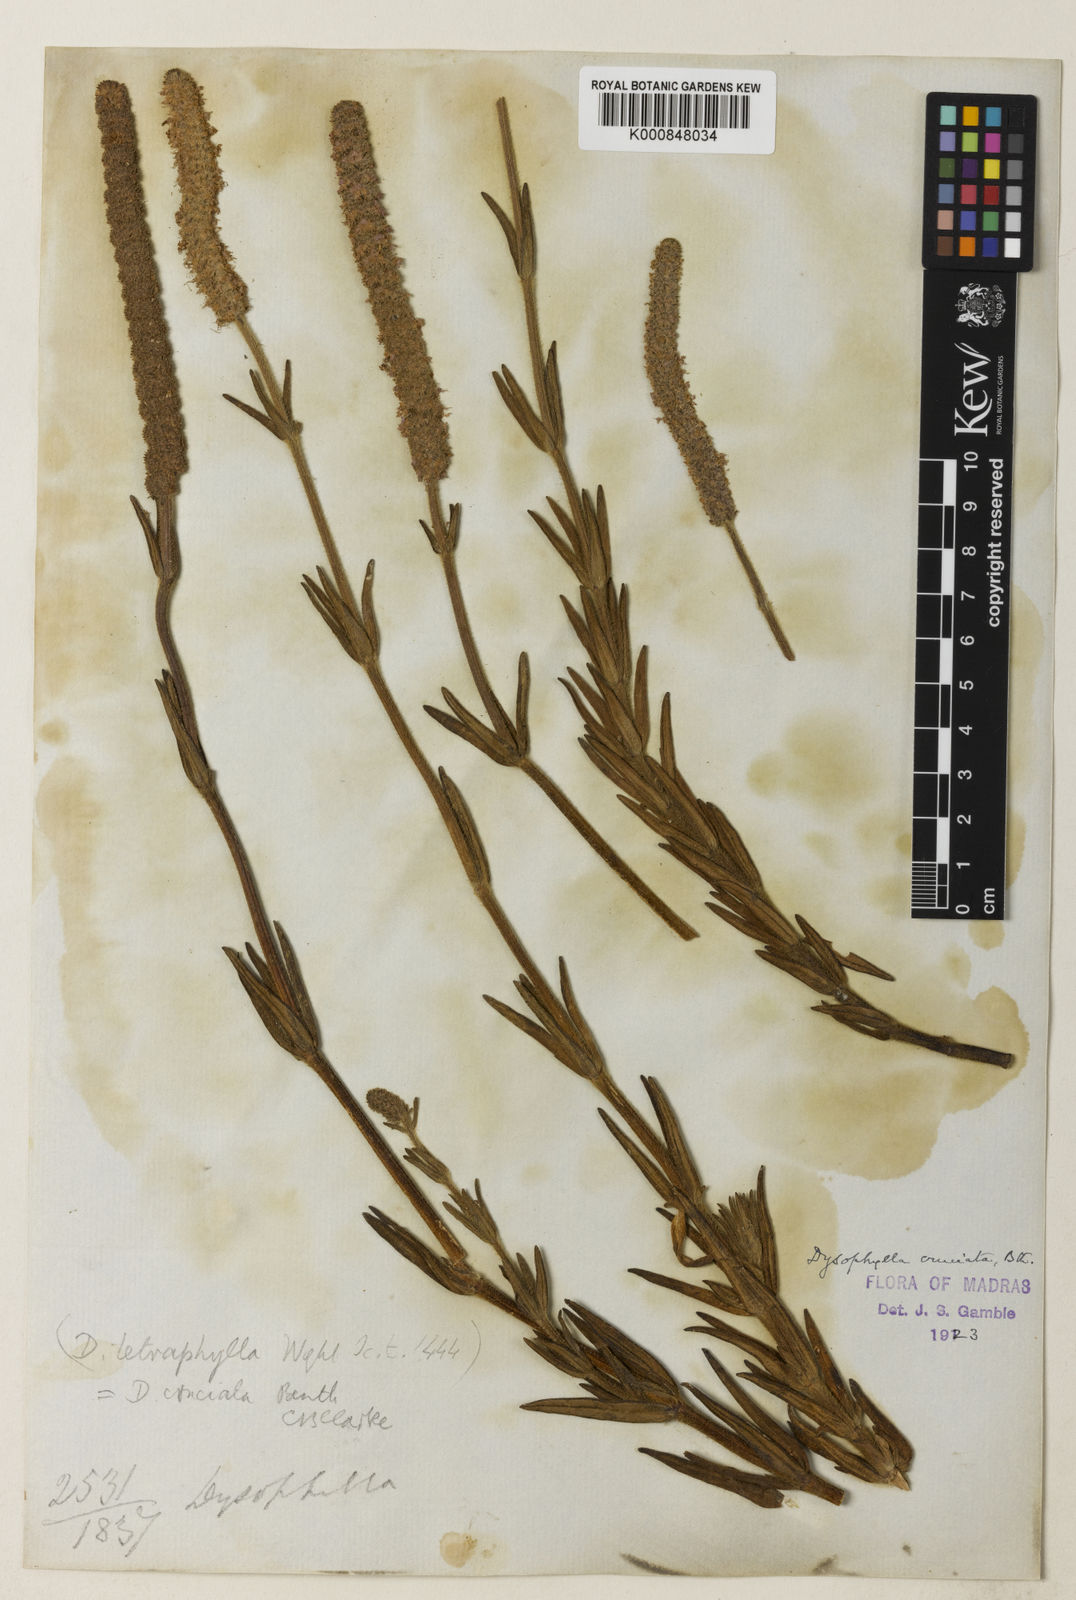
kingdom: Plantae
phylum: Tracheophyta
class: Magnoliopsida
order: Lamiales
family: Lamiaceae
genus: Pogostemon
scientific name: Pogostemon cruciatus
